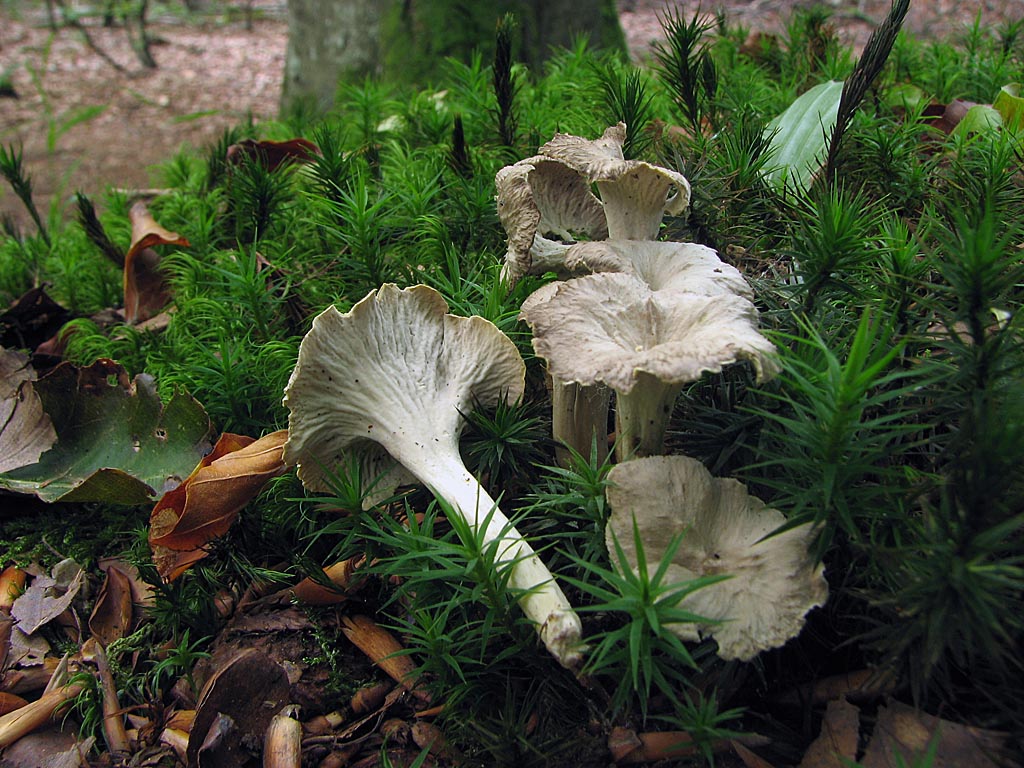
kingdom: Fungi
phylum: Basidiomycota
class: Agaricomycetes
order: Cantharellales
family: Hydnaceae
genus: Craterellus
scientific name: Craterellus undulatus
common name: liden kantarel
